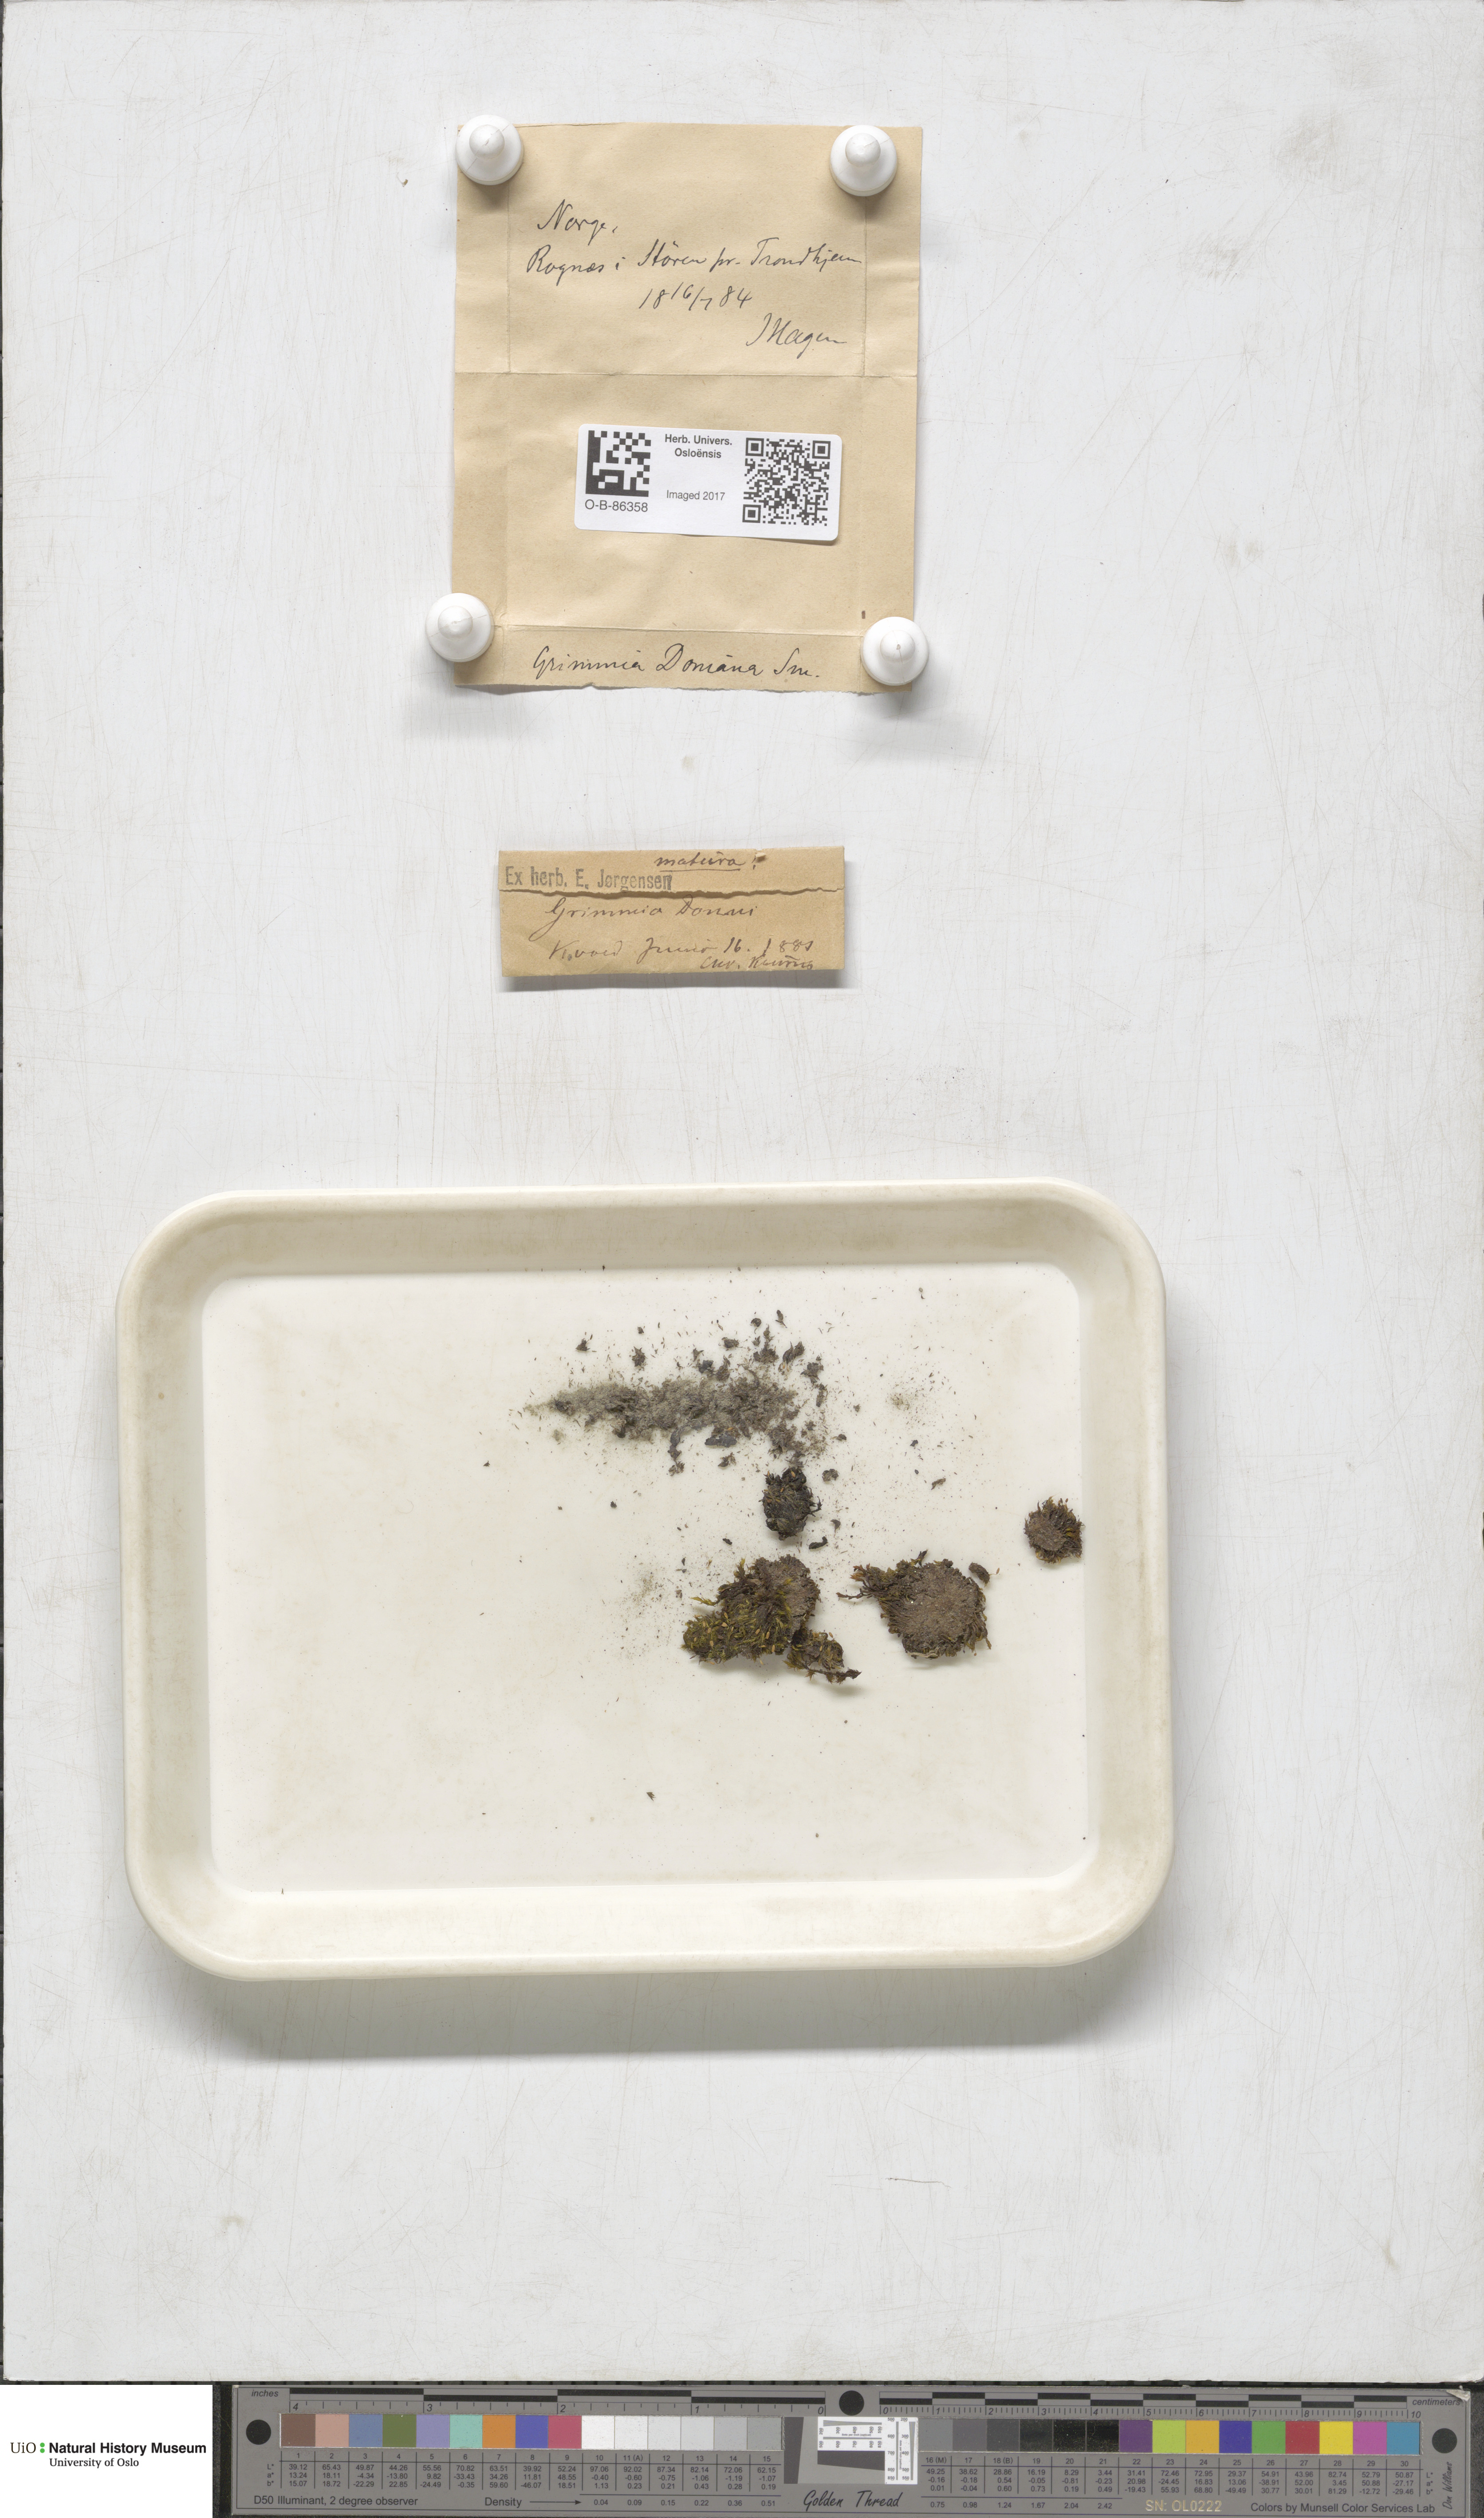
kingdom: Plantae
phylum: Bryophyta
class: Bryopsida
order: Grimmiales
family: Grimmiaceae
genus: Grimmia
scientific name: Grimmia donniana
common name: Donn's grimmia
